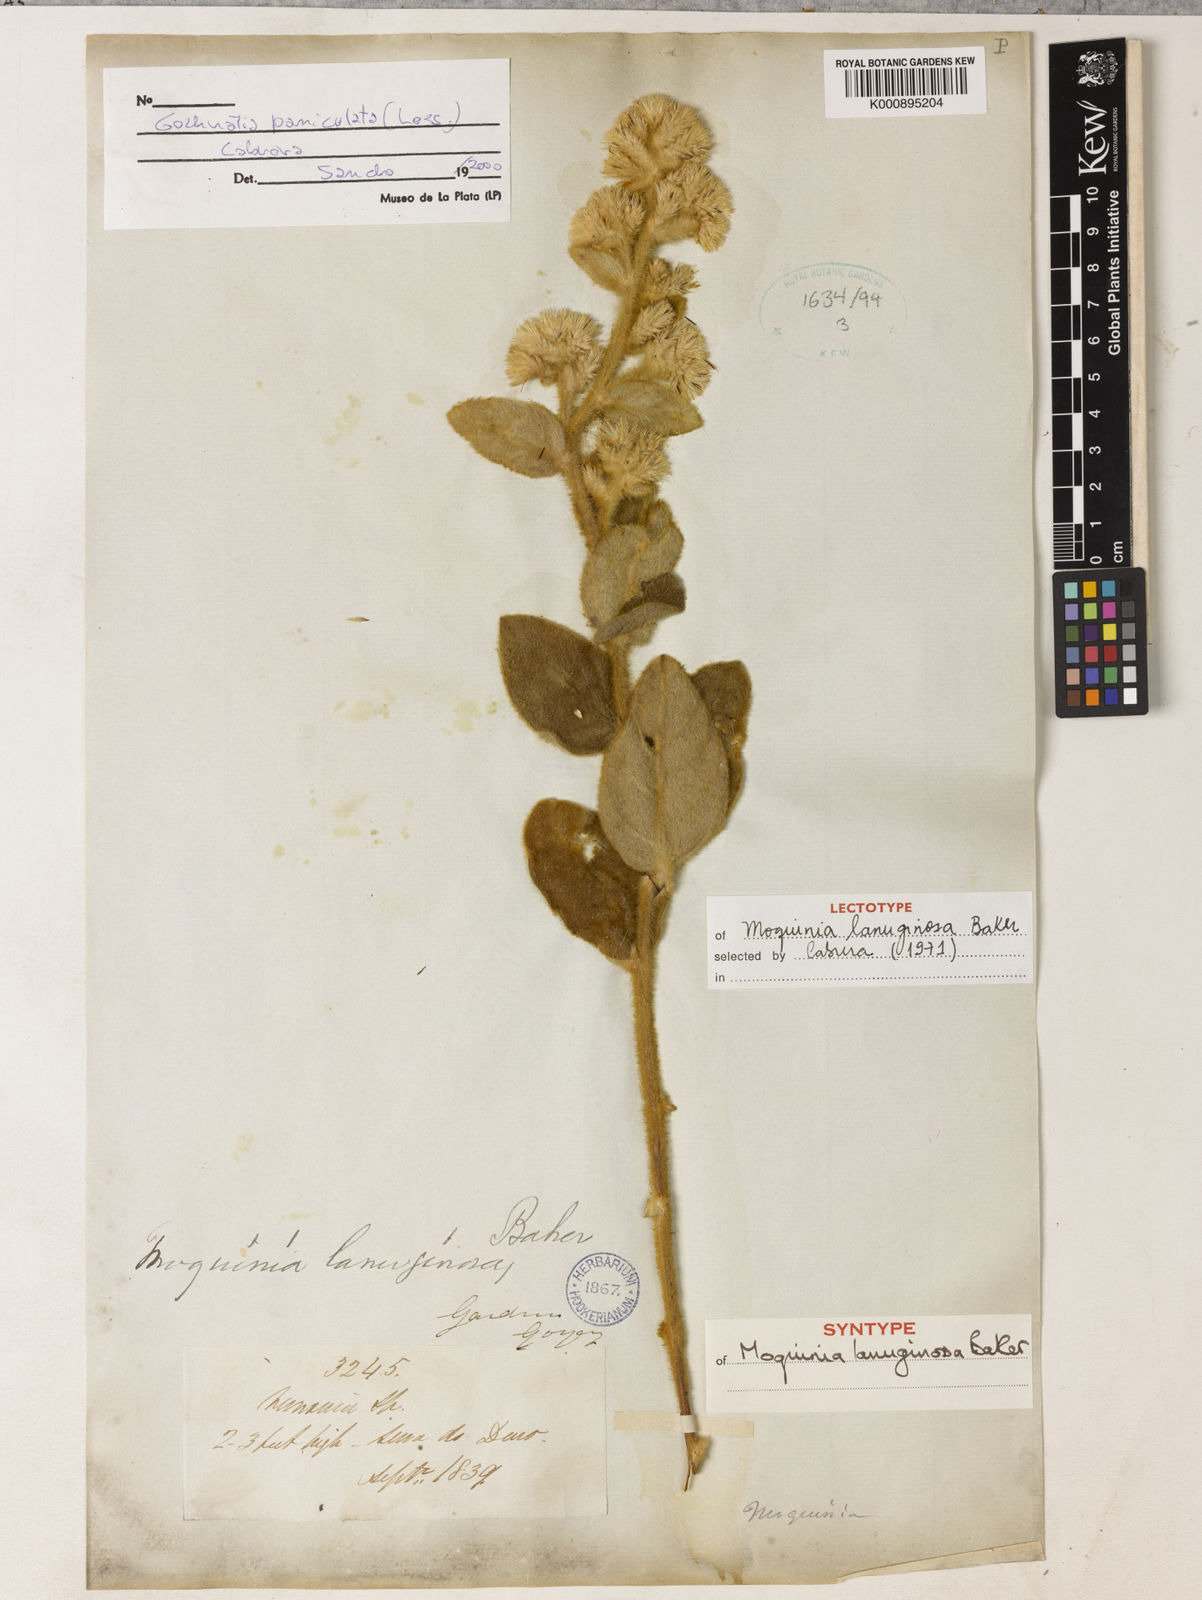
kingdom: Plantae
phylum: Tracheophyta
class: Magnoliopsida
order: Asterales
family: Asteraceae
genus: Moquiniastrum
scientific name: Moquiniastrum paniculatum
